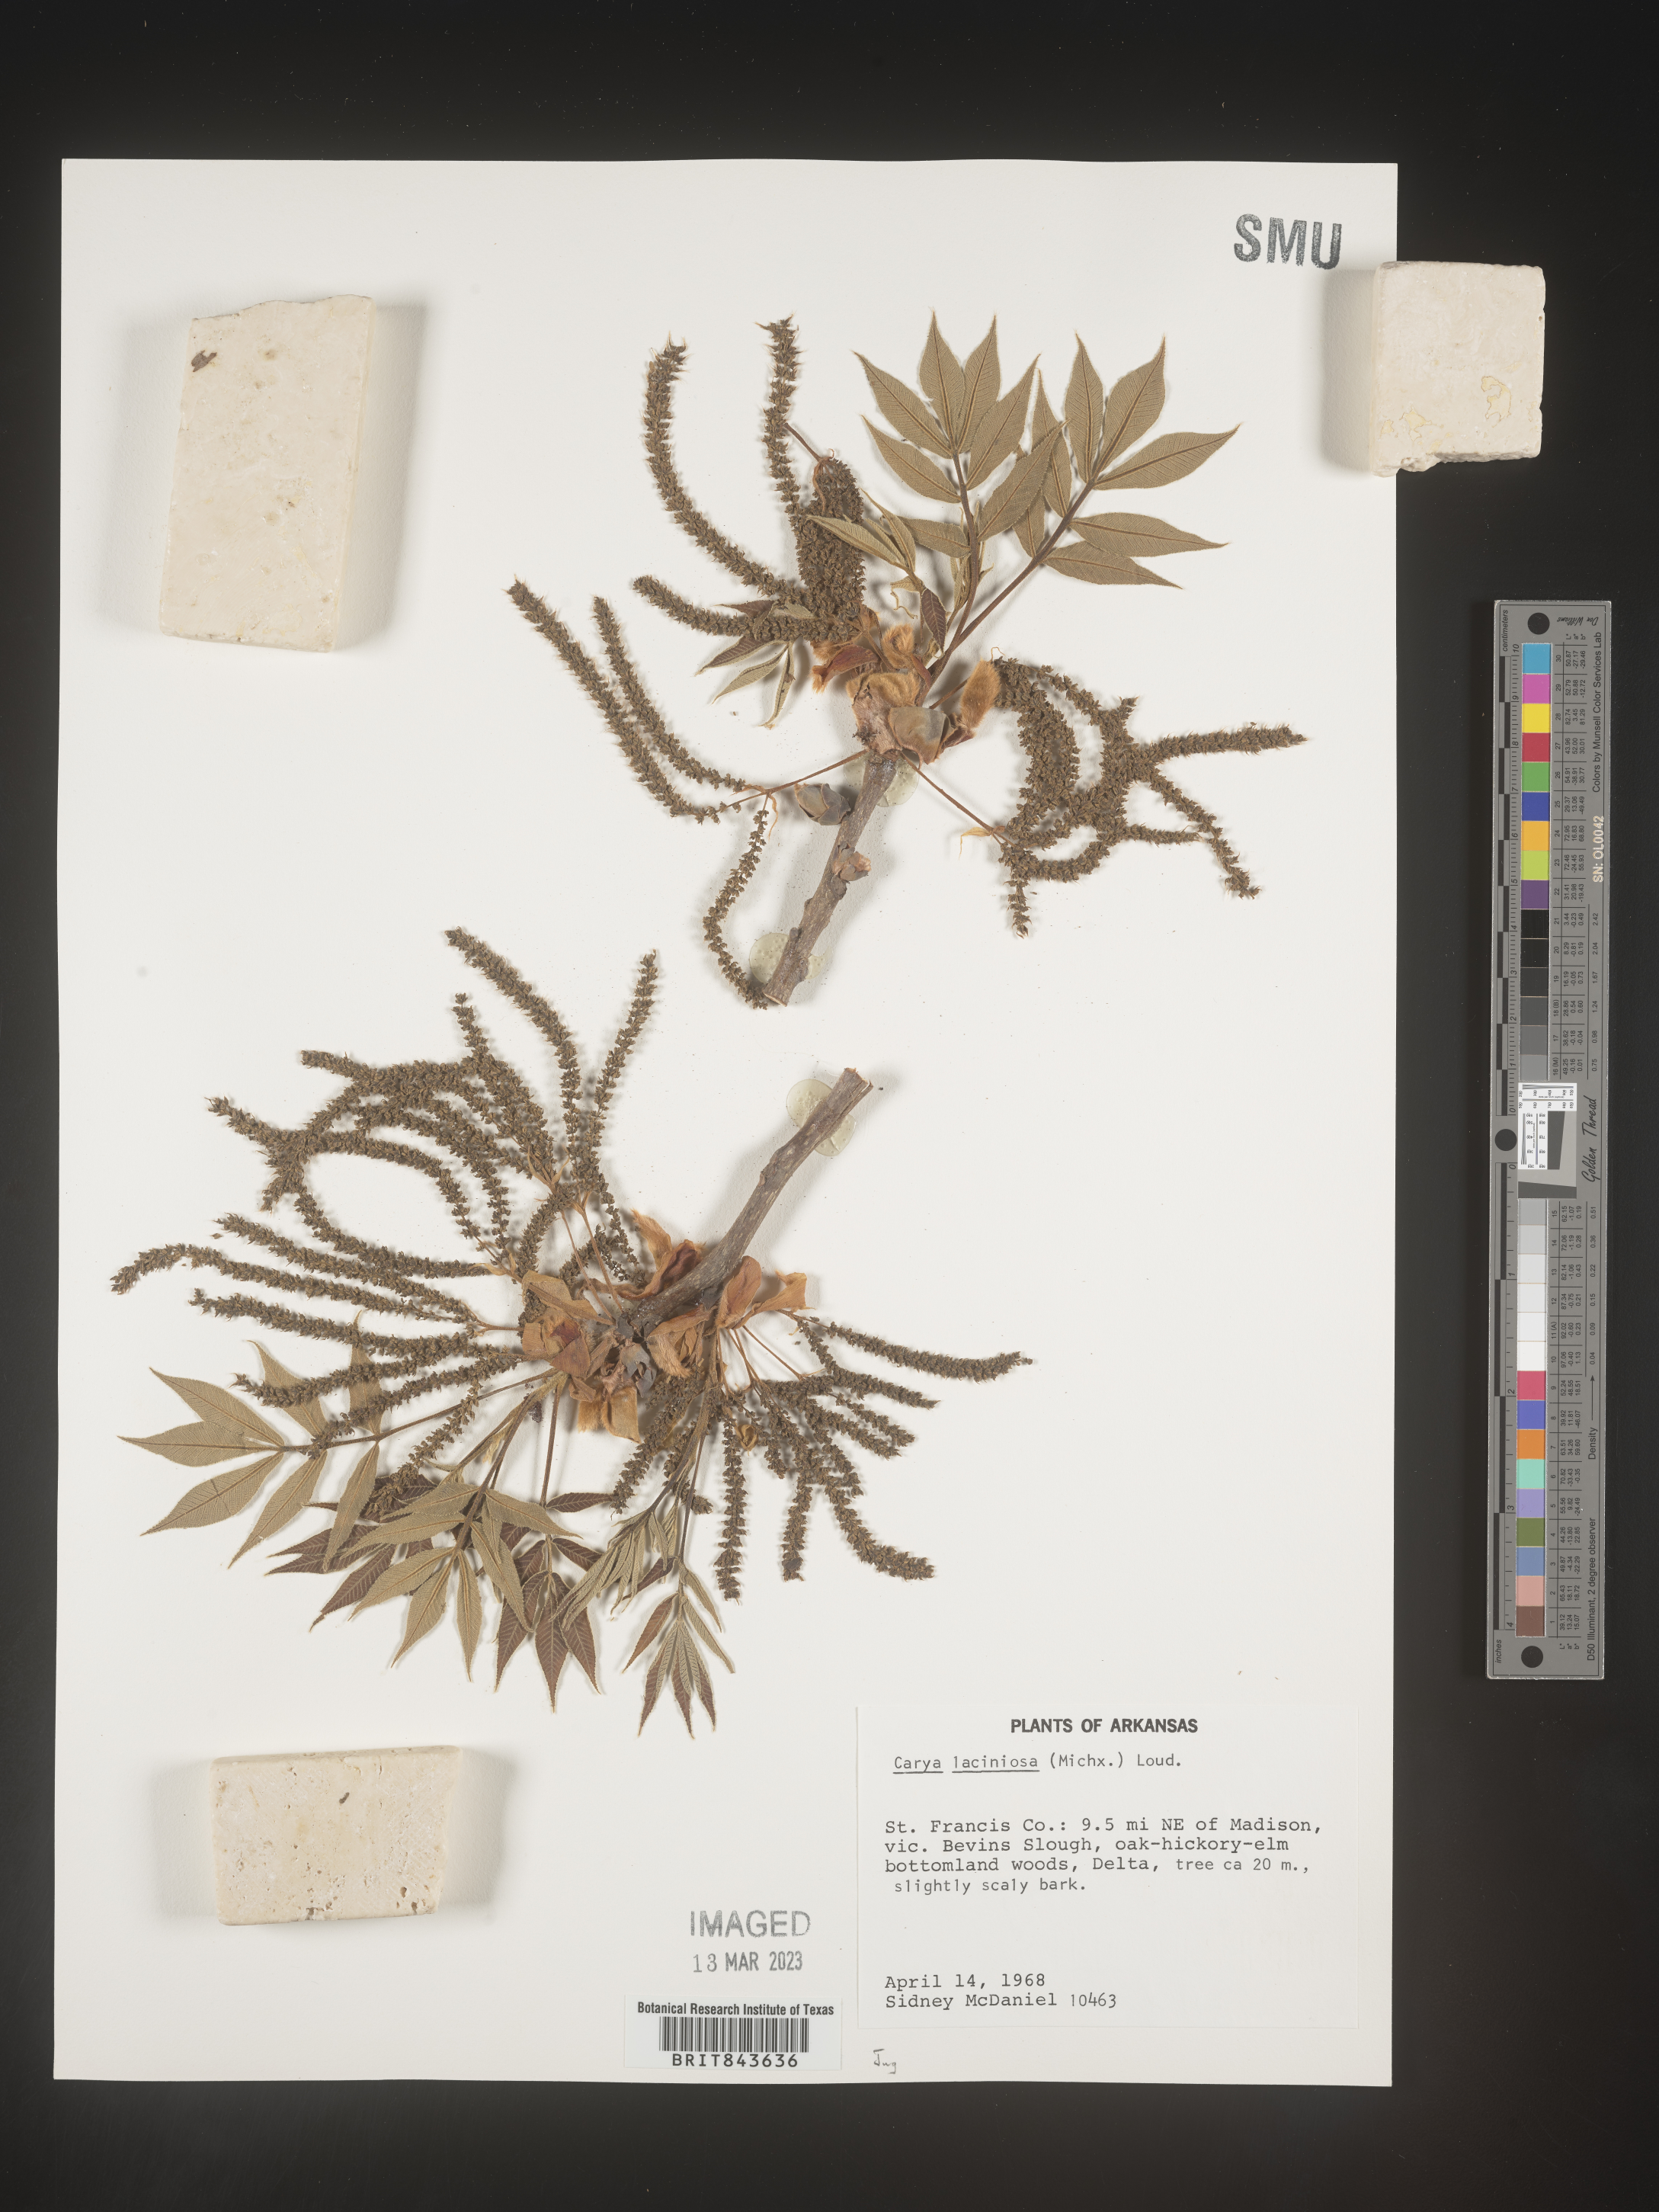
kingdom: Plantae
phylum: Tracheophyta
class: Magnoliopsida
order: Fagales
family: Juglandaceae
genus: Carya
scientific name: Carya laciniosa
